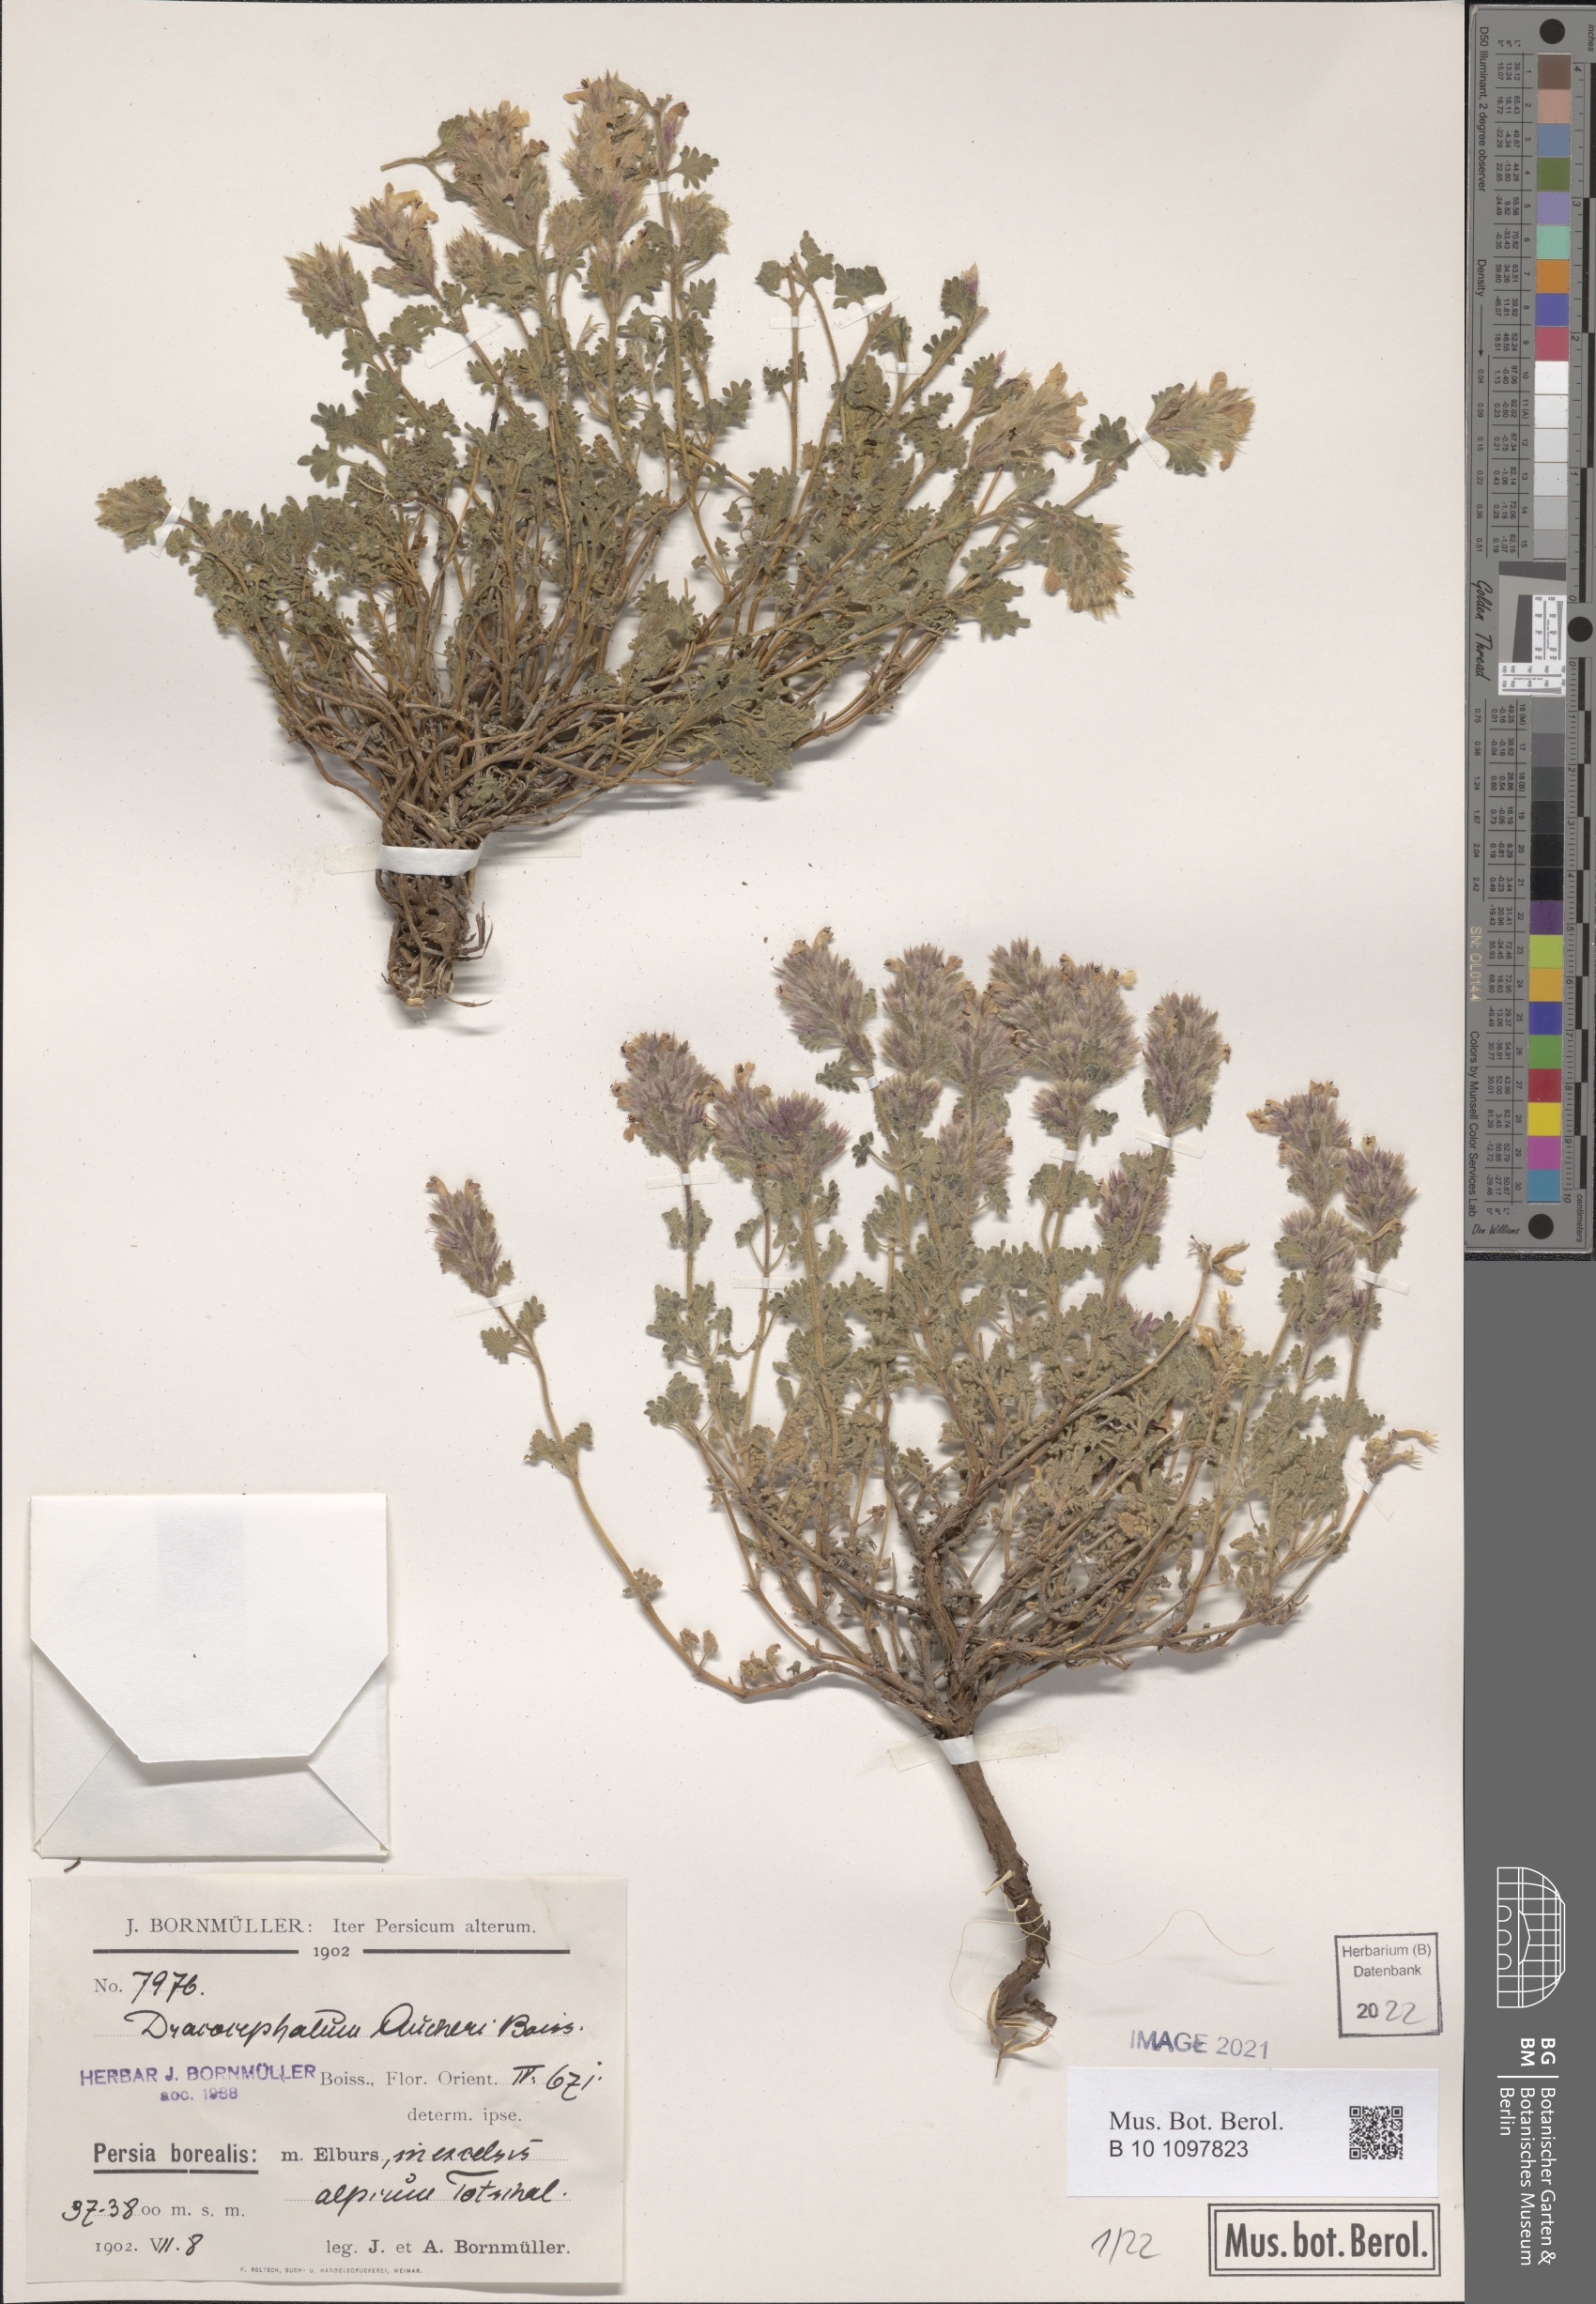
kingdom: Plantae
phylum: Tracheophyta
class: Magnoliopsida
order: Lamiales
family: Lamiaceae
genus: Dracocephalum
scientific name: Dracocephalum aucheri
